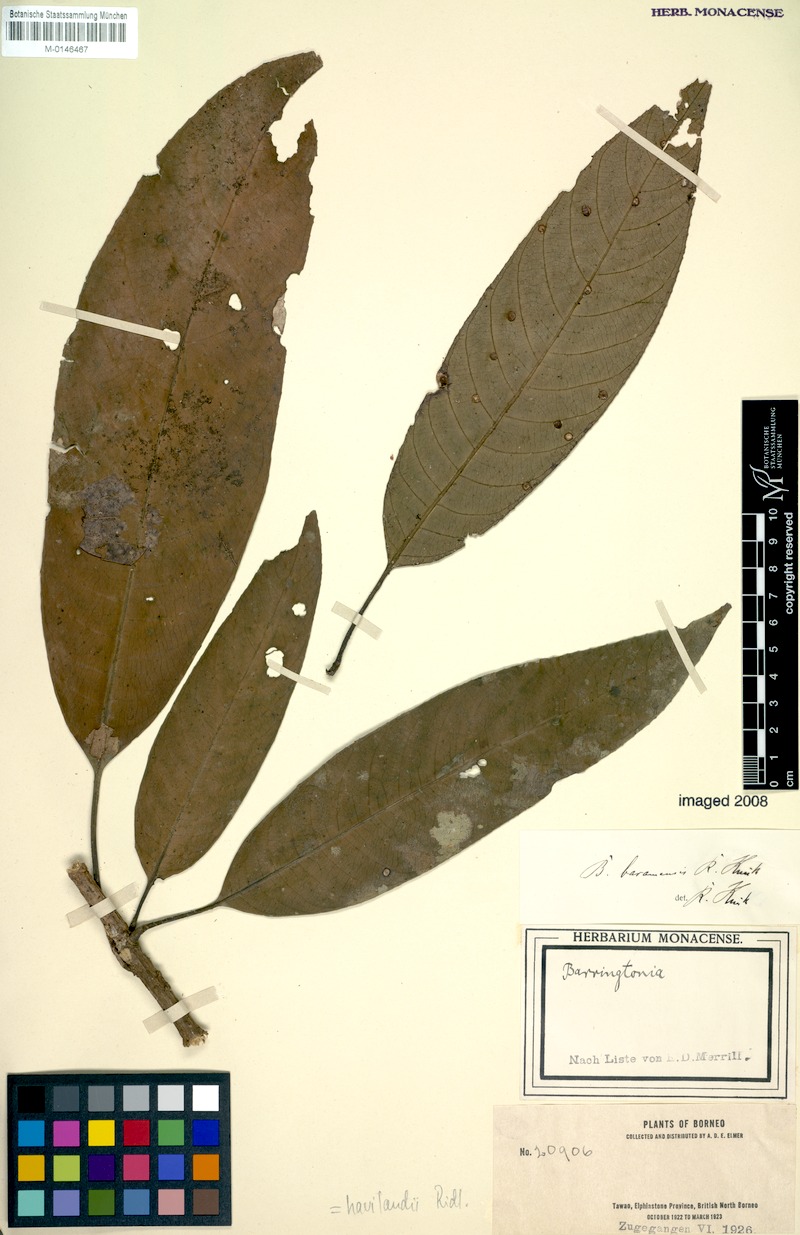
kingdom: Plantae
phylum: Tracheophyta
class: Magnoliopsida
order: Ericales
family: Lecythidaceae
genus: Barringtonia
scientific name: Barringtonia havilandii
